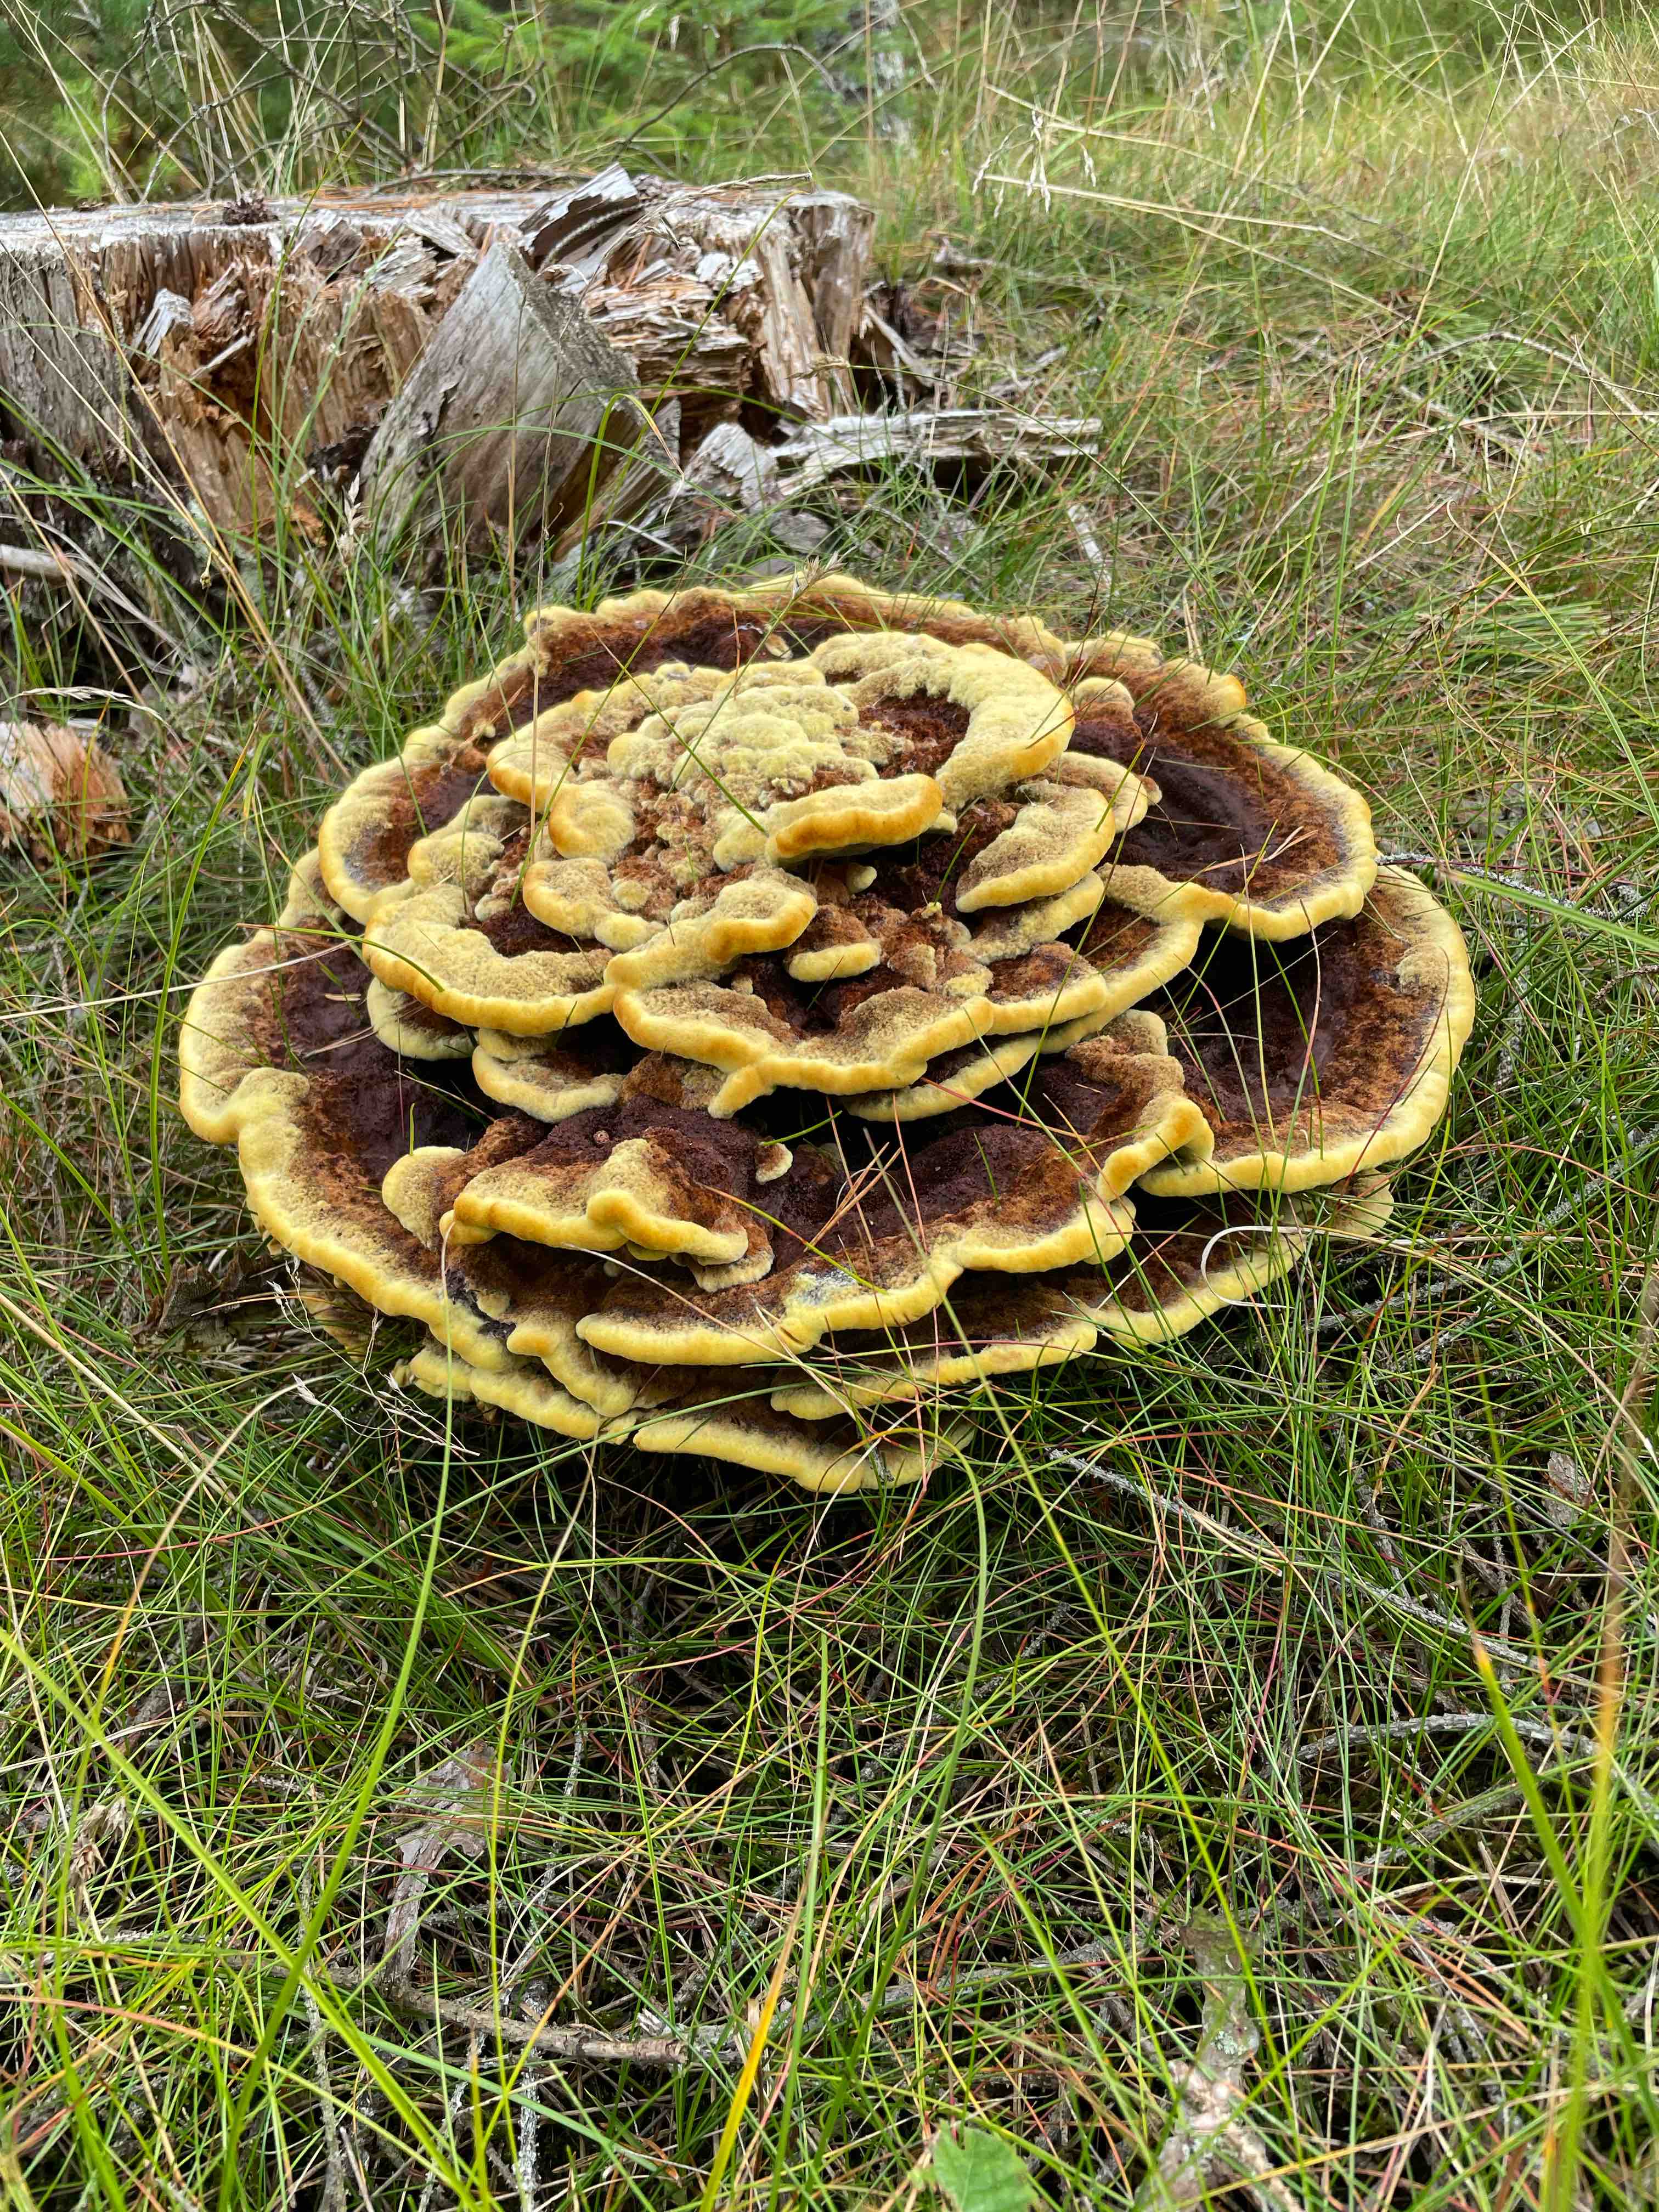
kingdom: Fungi
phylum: Basidiomycota
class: Agaricomycetes
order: Polyporales
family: Laetiporaceae
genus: Phaeolus
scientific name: Phaeolus
